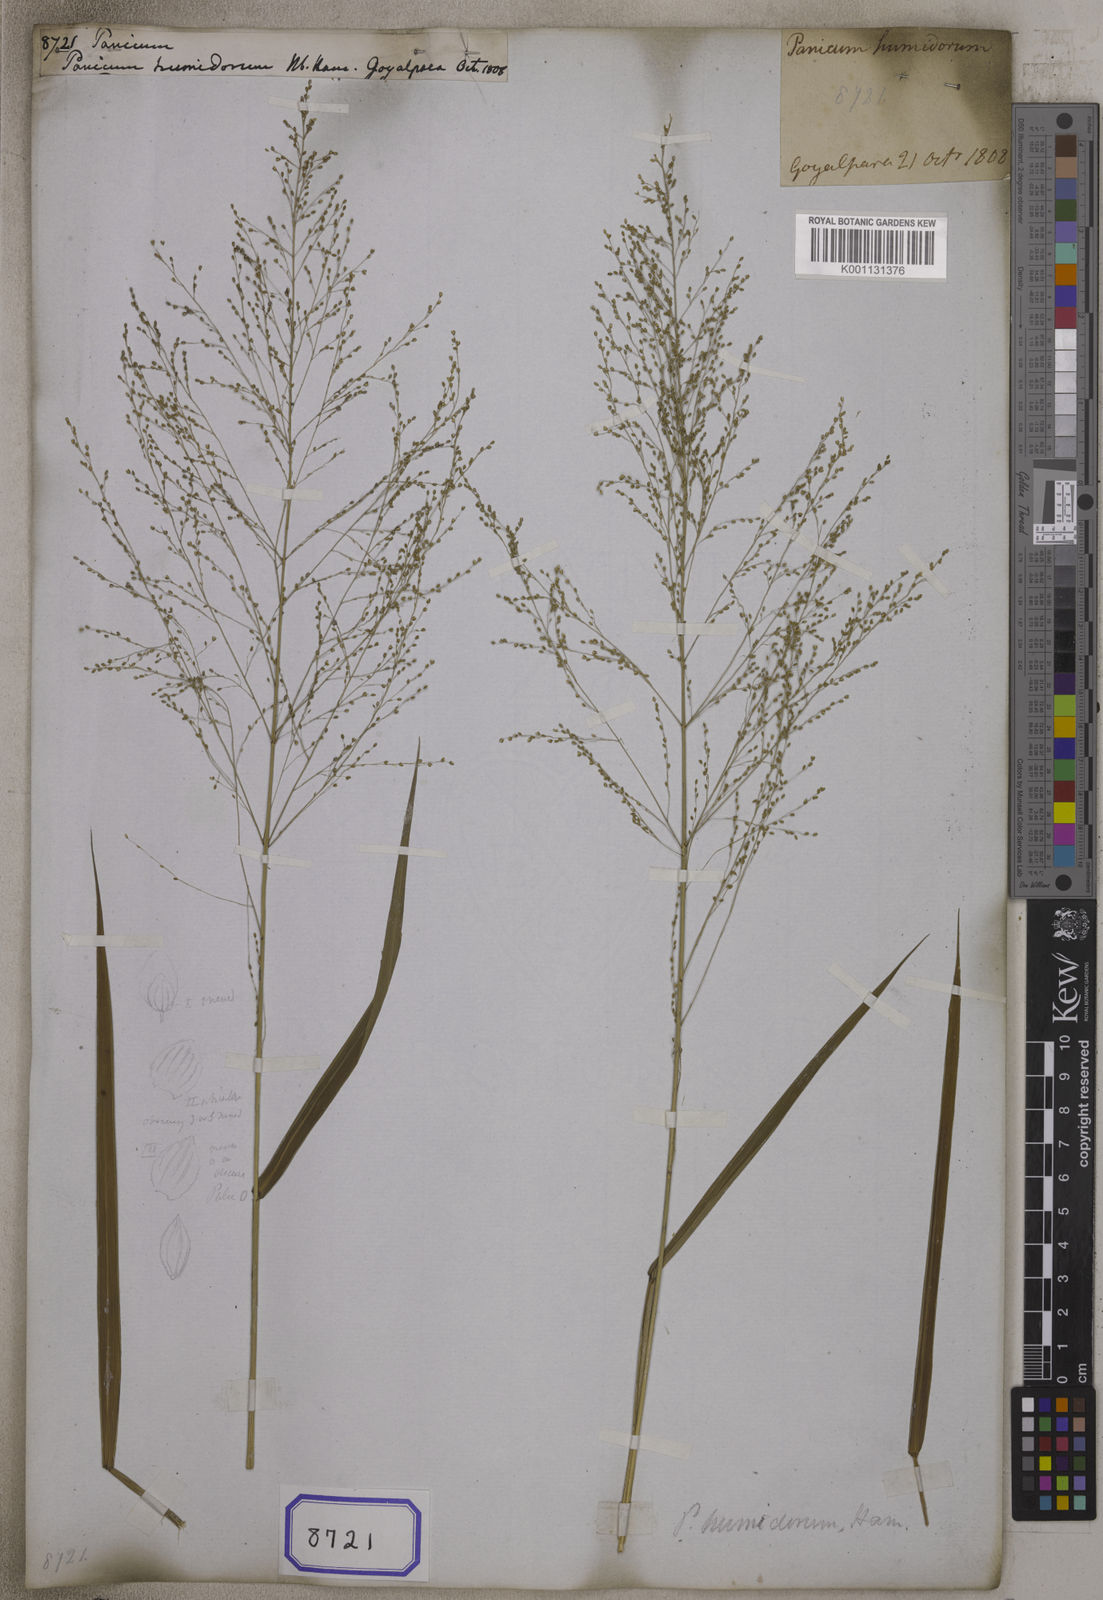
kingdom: Plantae
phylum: Tracheophyta
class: Liliopsida
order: Poales
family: Poaceae
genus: Panicum
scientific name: Panicum
